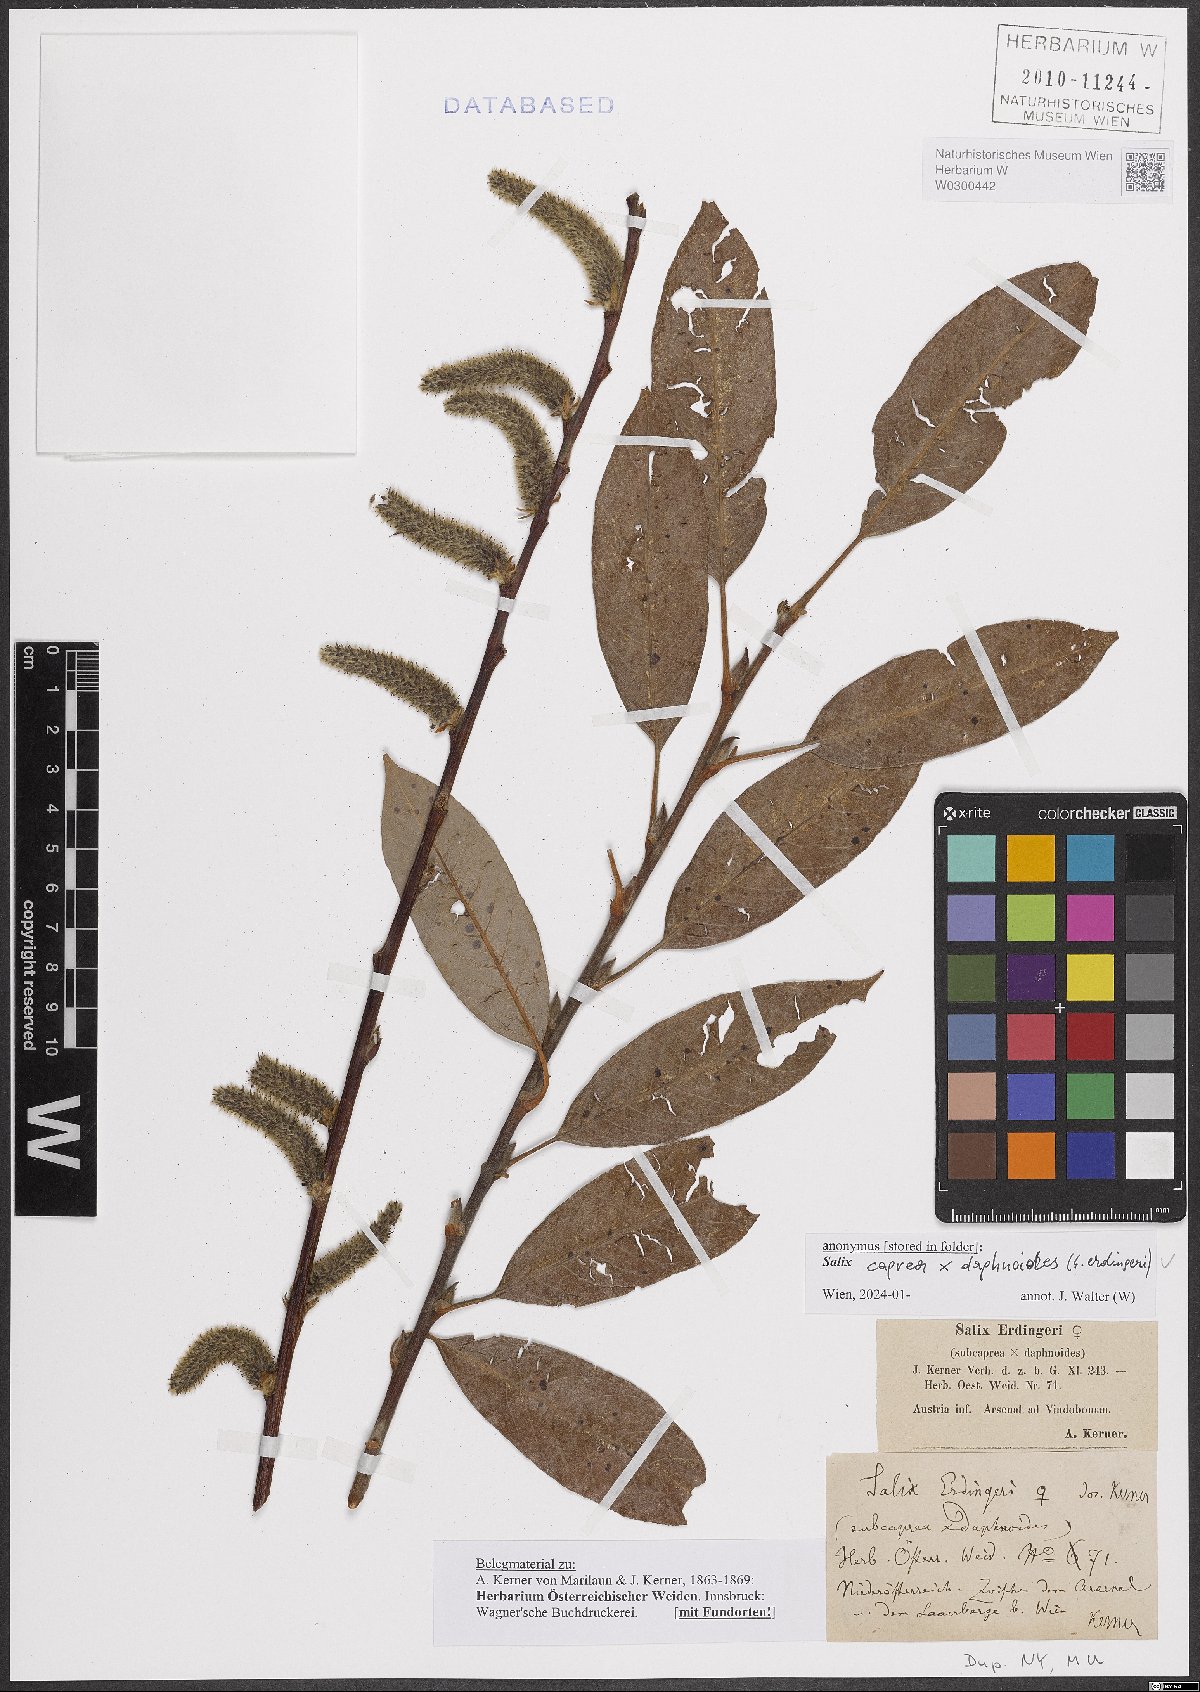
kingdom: Plantae
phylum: Tracheophyta
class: Magnoliopsida
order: Malpighiales
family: Salicaceae
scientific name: Salicaceae
